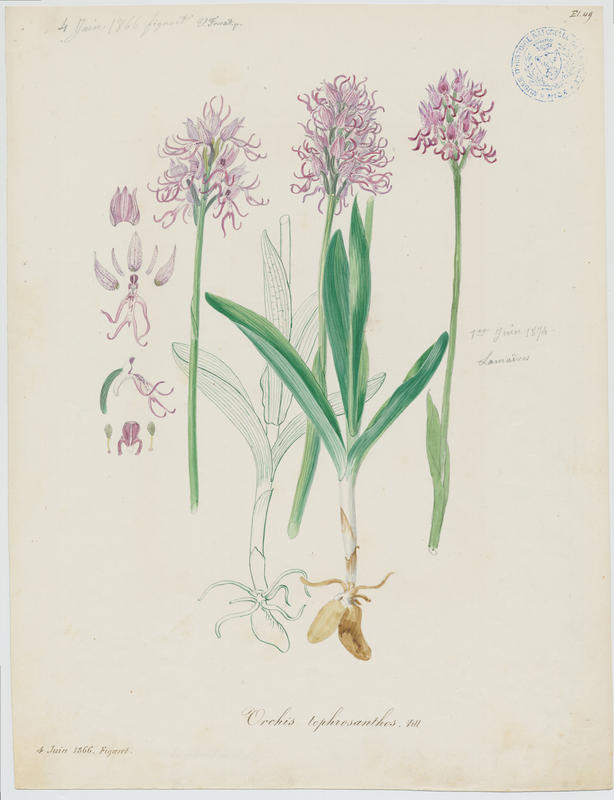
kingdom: Plantae
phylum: Tracheophyta
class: Liliopsida
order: Asparagales
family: Orchidaceae
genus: Orchis
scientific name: Orchis simia
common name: Monkey orchid
